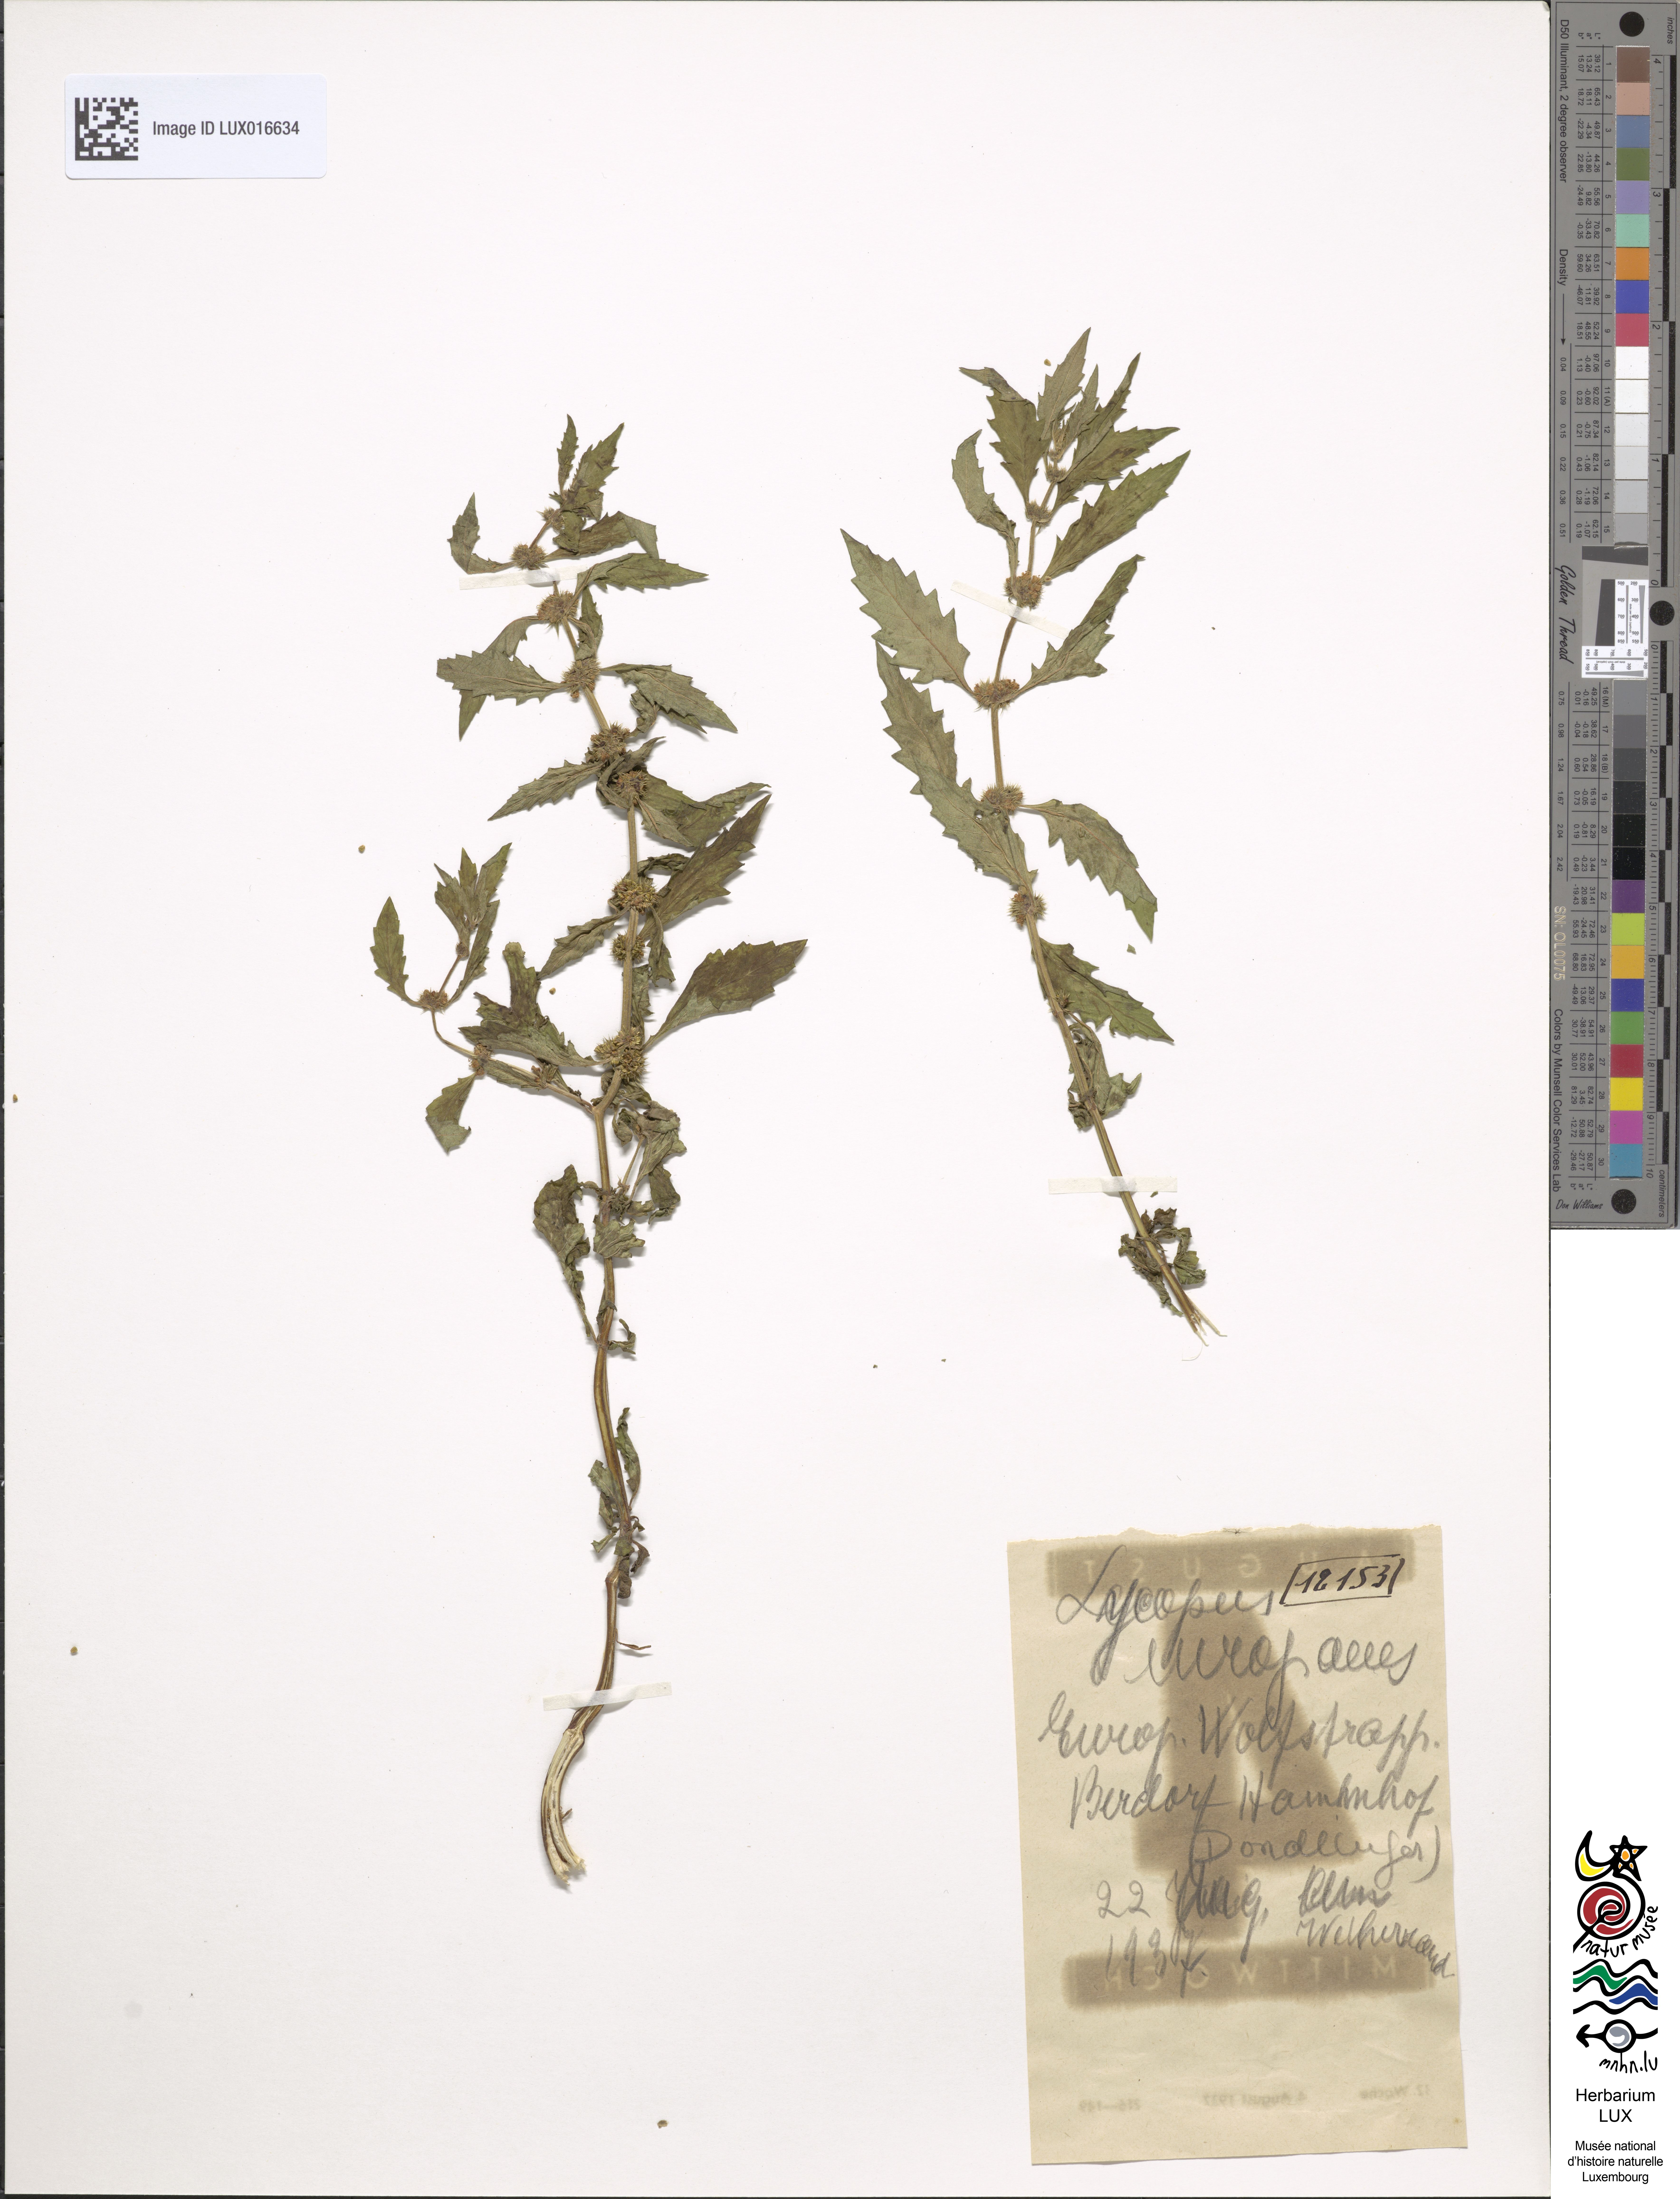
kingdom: Plantae
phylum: Tracheophyta
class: Magnoliopsida
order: Lamiales
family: Lamiaceae
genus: Lycopus
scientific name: Lycopus europaeus
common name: European bugleweed
